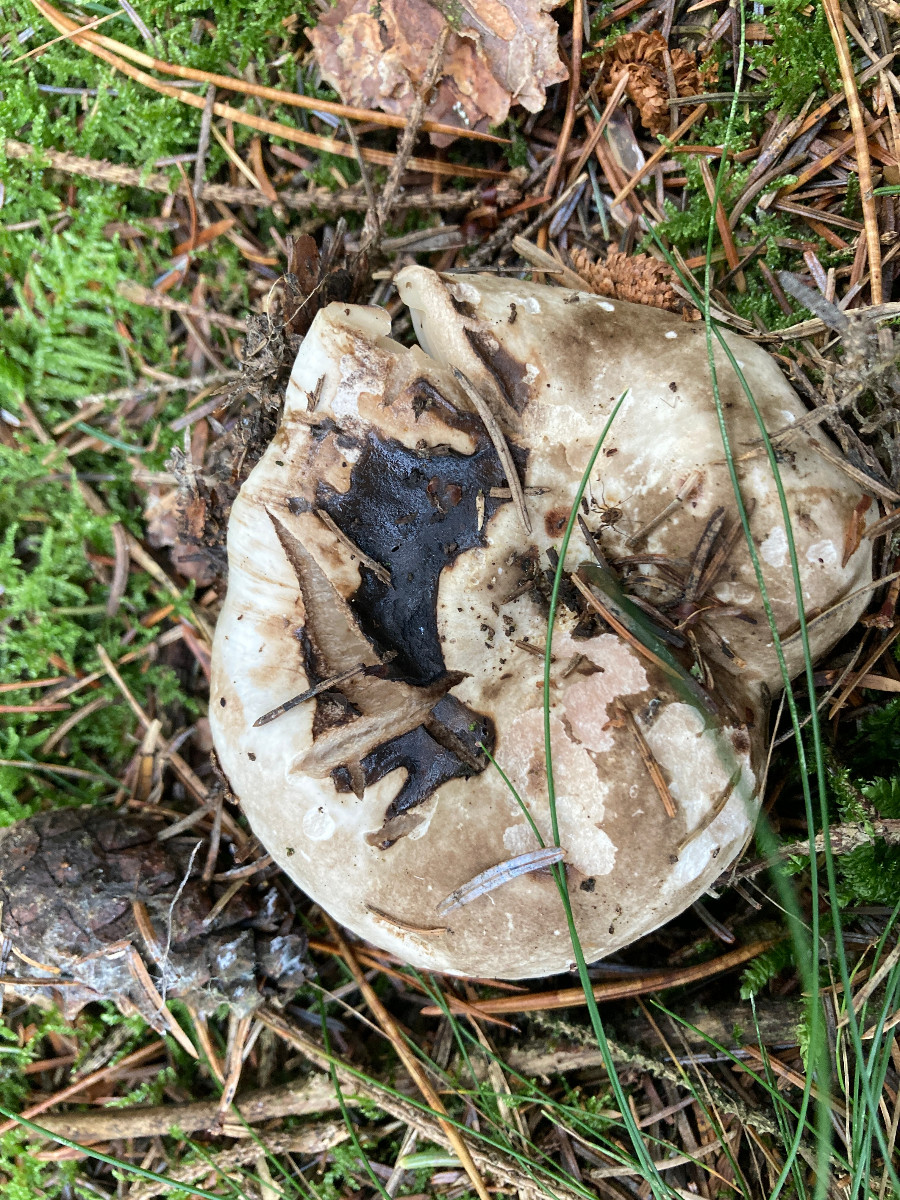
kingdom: Fungi
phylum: Basidiomycota
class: Agaricomycetes
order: Russulales
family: Russulaceae
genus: Russula
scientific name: Russula adusta
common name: sværtende skørhat
